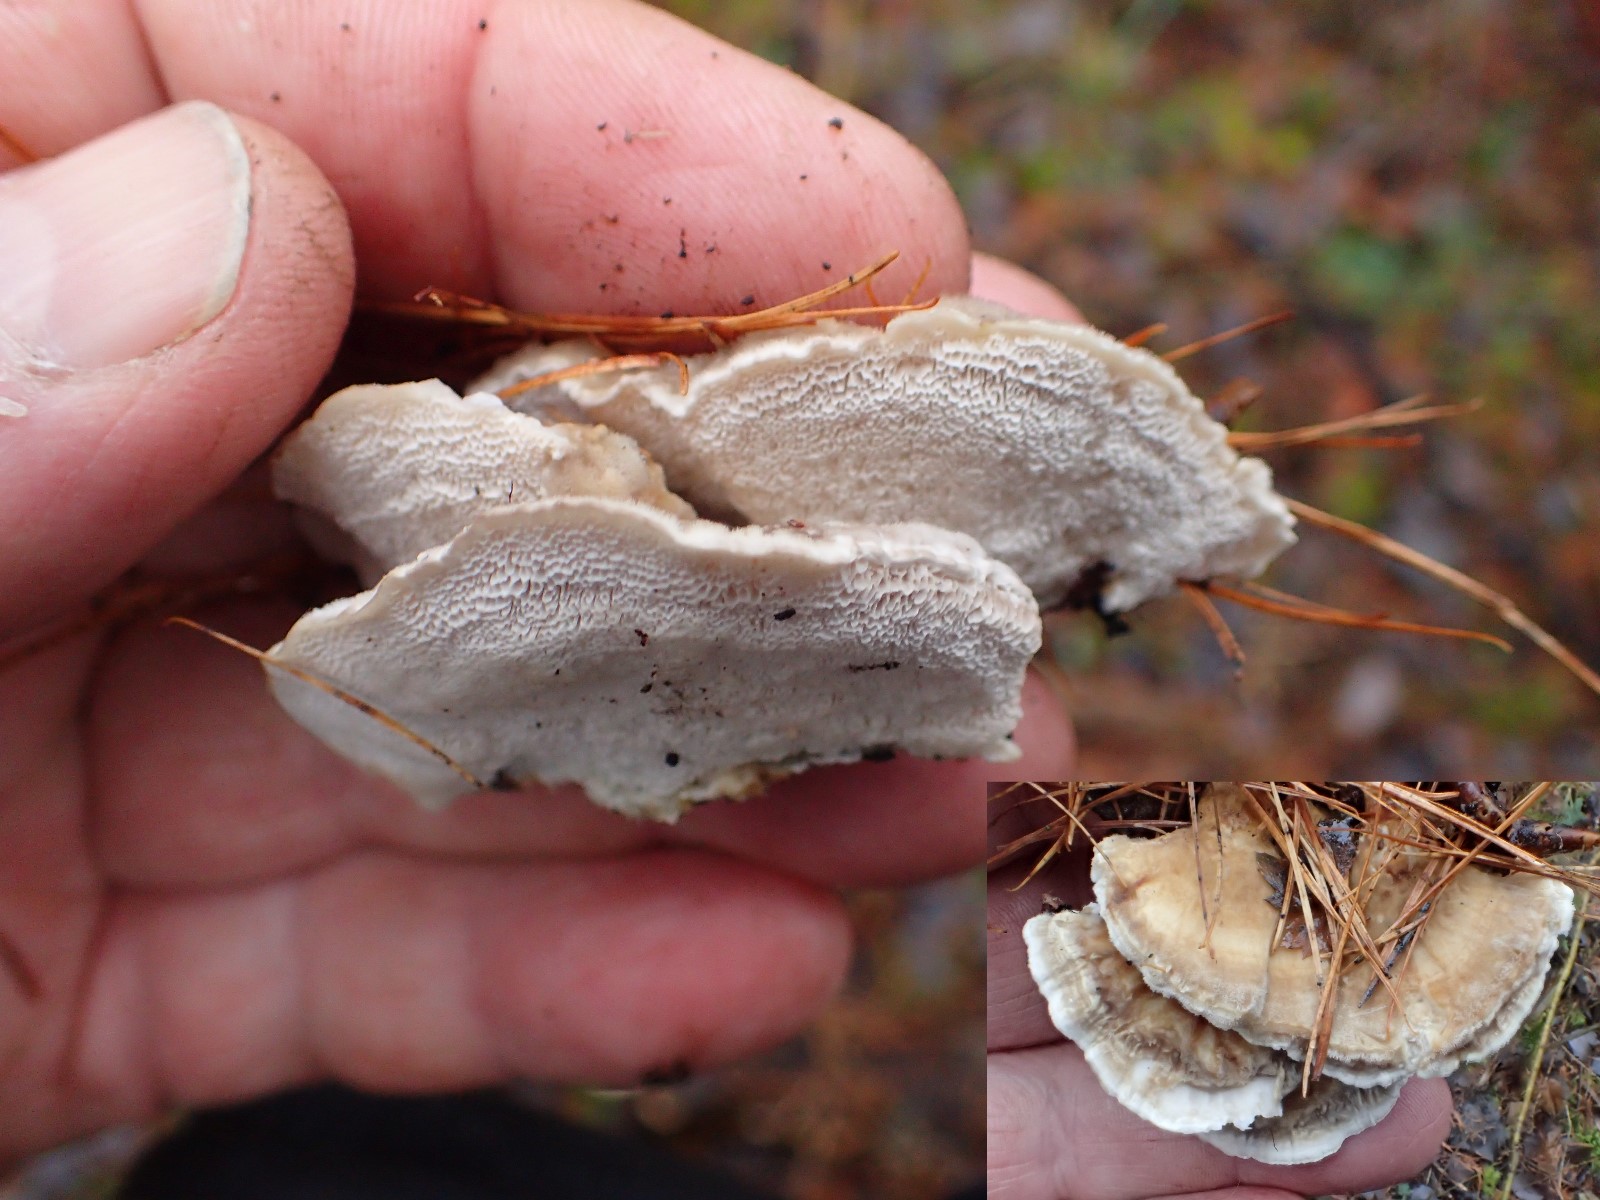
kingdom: Fungi
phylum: Basidiomycota
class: Agaricomycetes
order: Polyporales
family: Polyporaceae
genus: Trametes
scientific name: Trametes versicolor
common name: broget læderporesvamp
